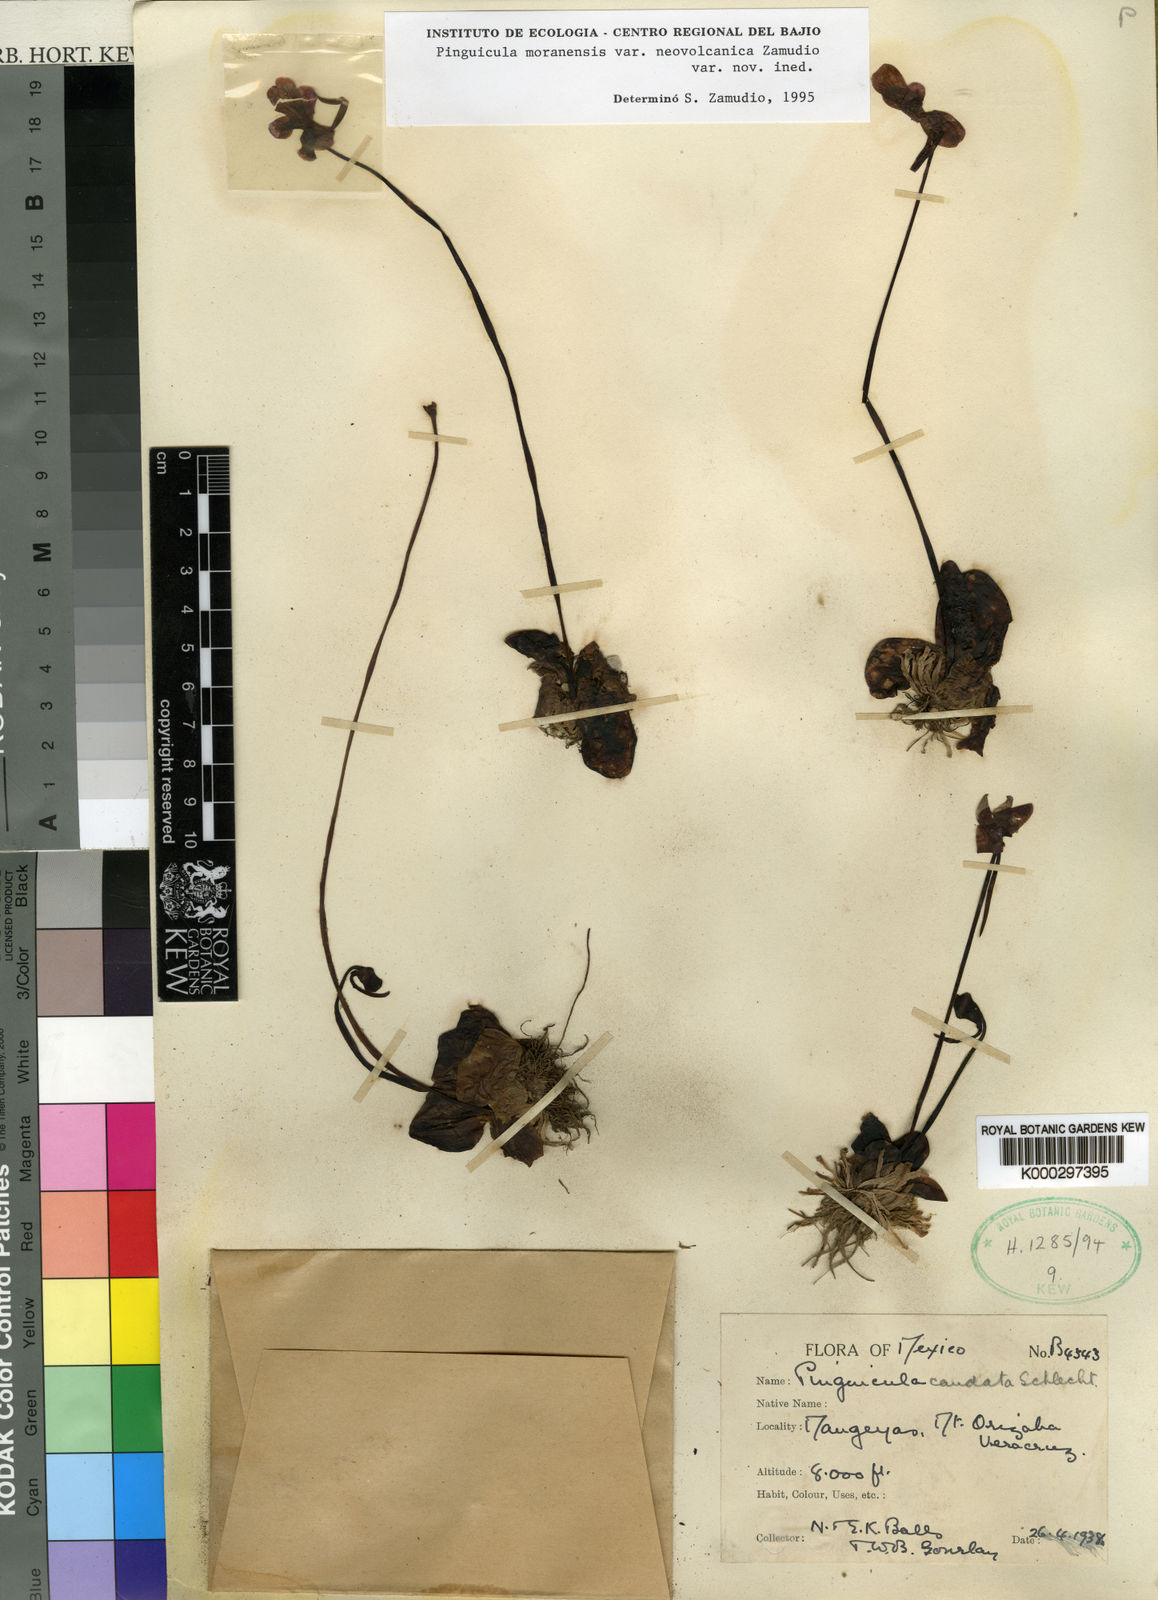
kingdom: Plantae
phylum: Tracheophyta
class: Magnoliopsida
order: Lamiales
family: Lentibulariaceae
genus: Pinguicula
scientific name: Pinguicula moranensis
